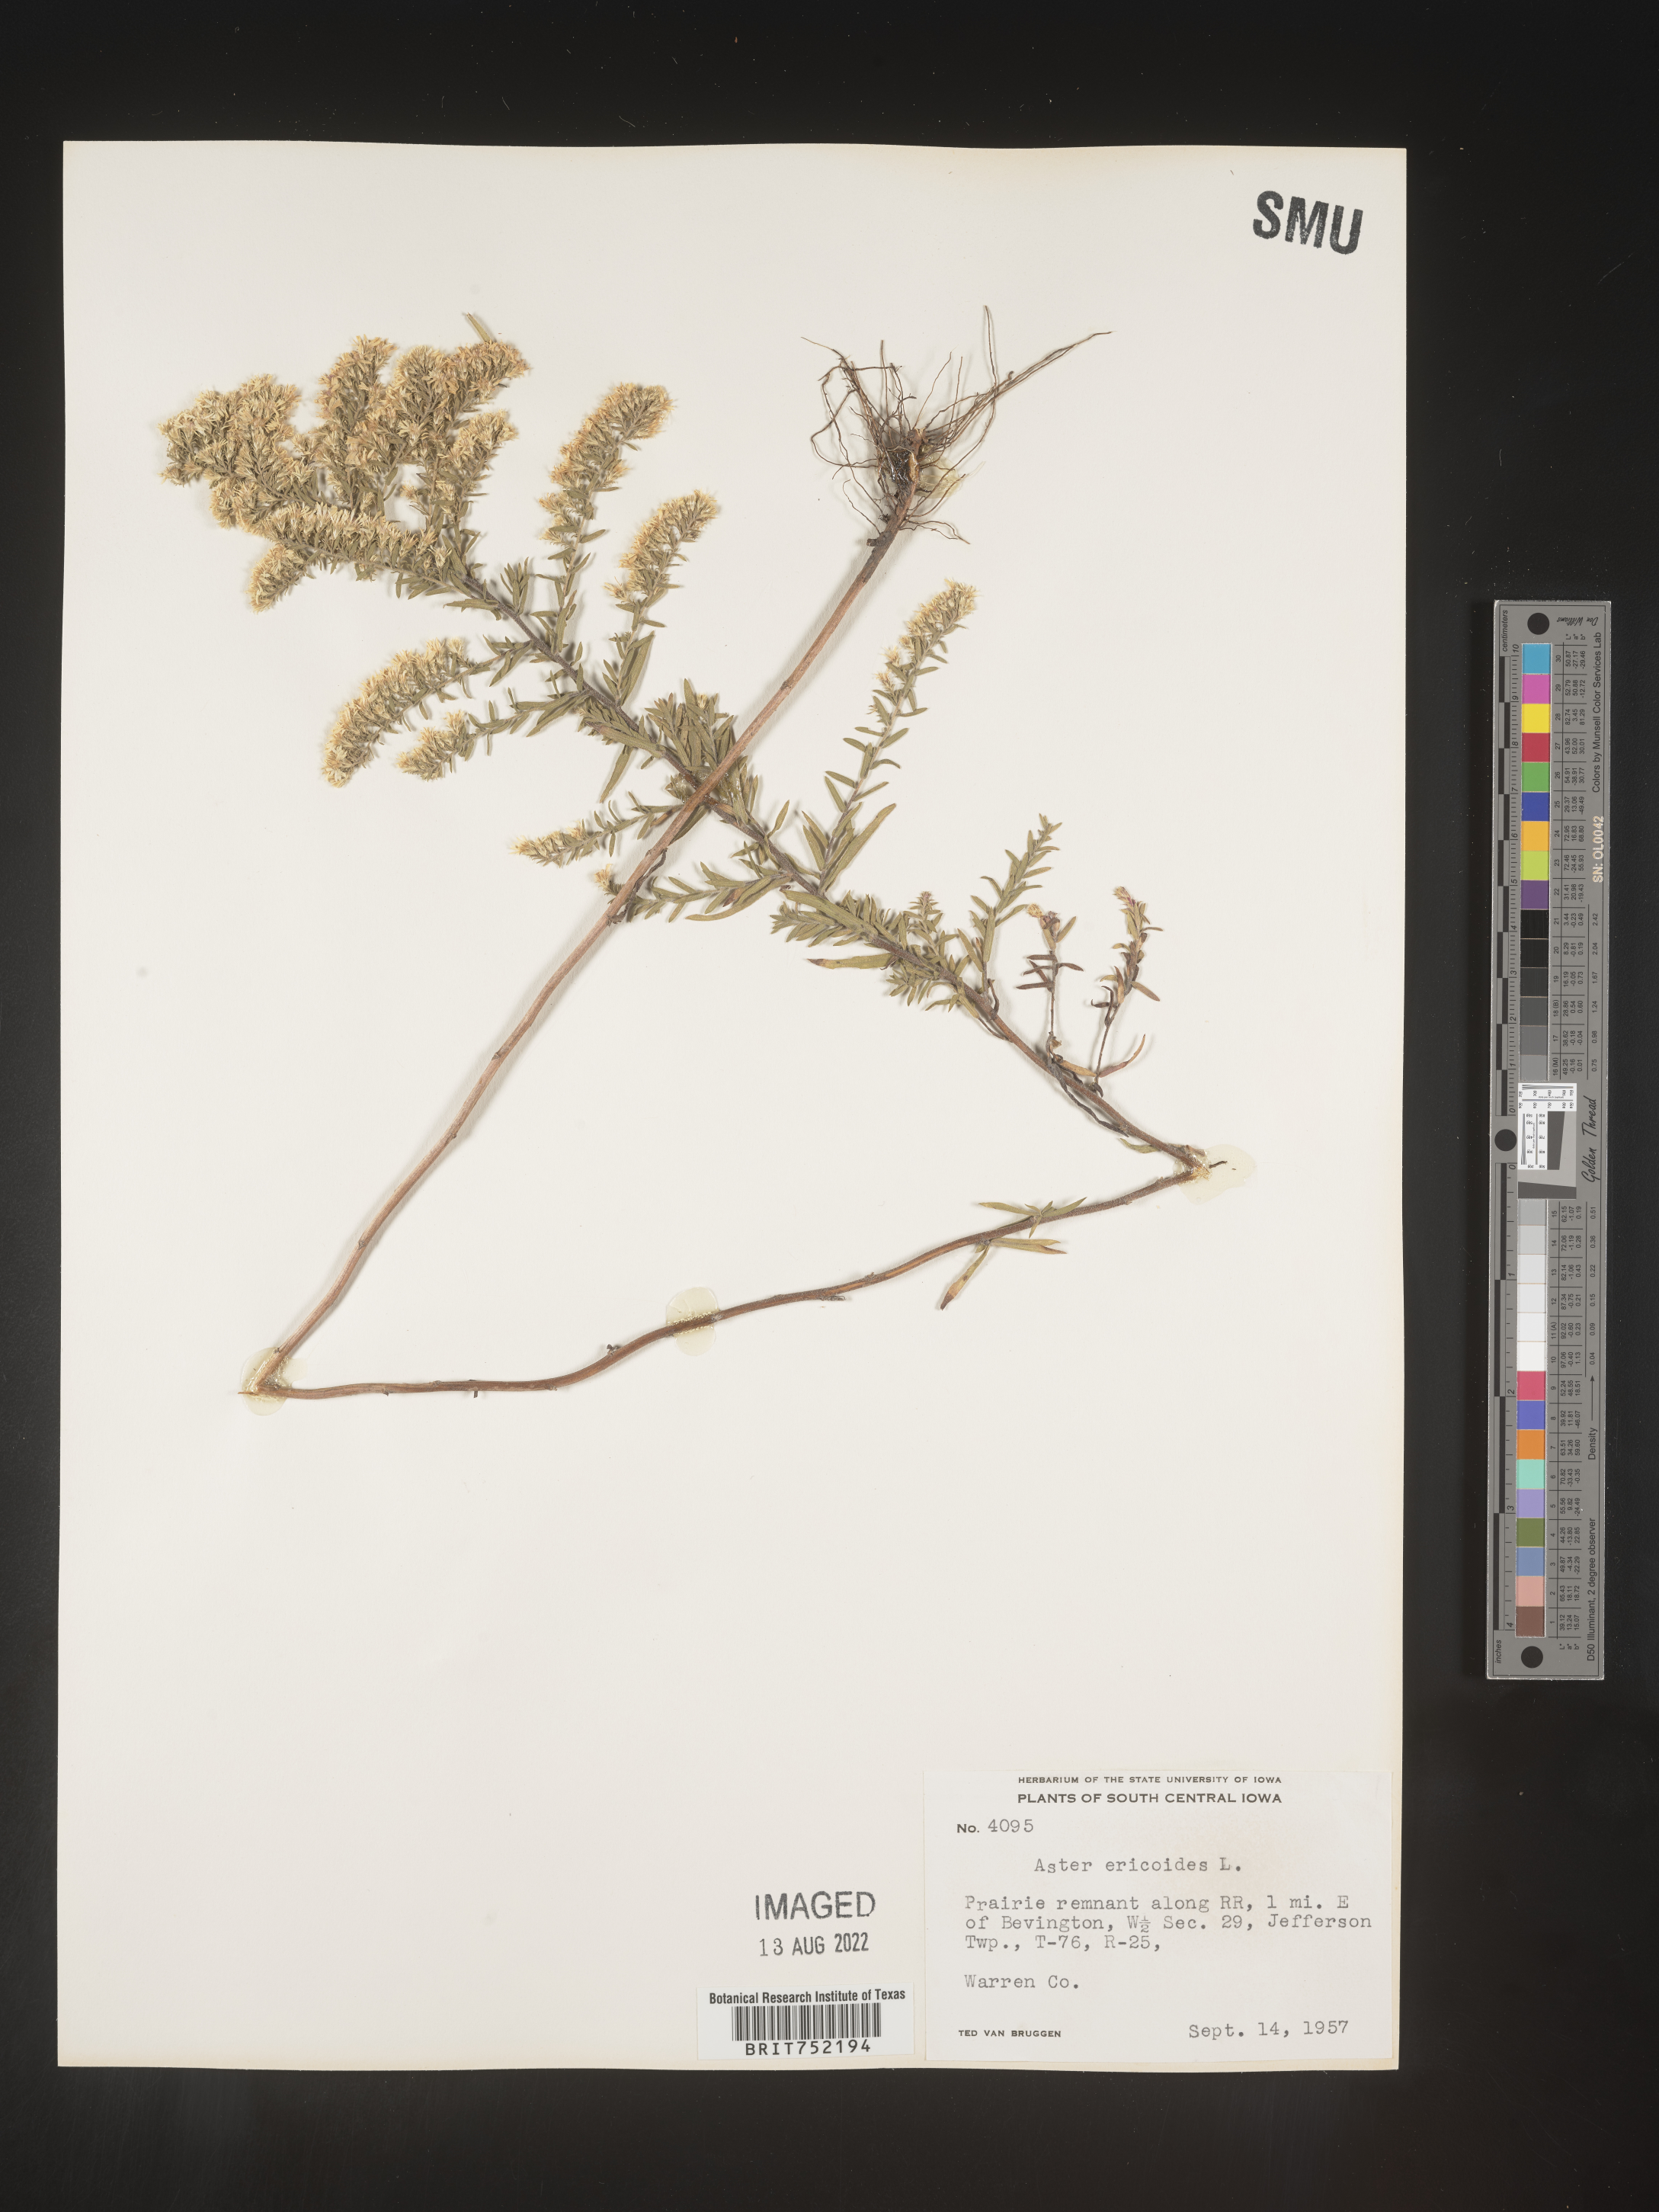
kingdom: Plantae
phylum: Tracheophyta
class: Magnoliopsida
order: Asterales
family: Asteraceae
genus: Symphyotrichum
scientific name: Symphyotrichum ericoides
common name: Heath aster
